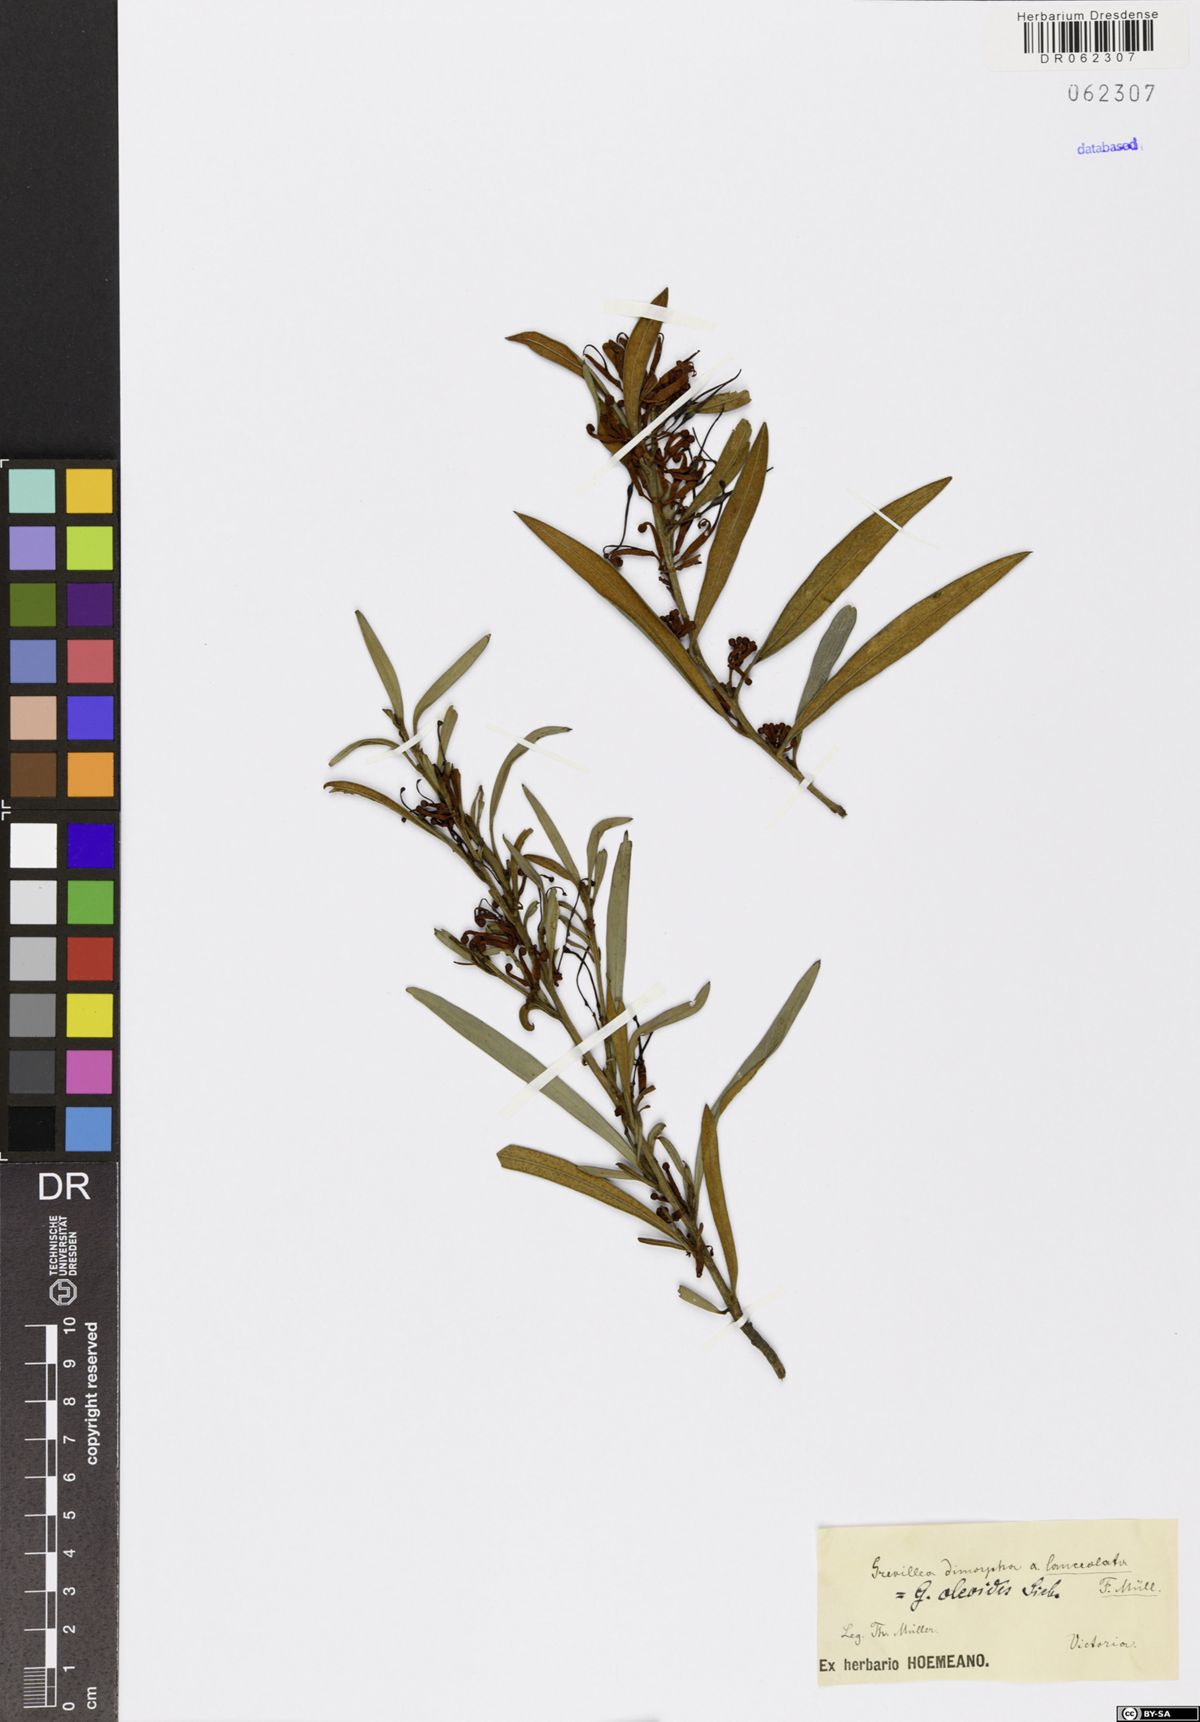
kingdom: Plantae
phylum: Tracheophyta
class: Magnoliopsida
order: Proteales
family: Proteaceae
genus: Grevillea
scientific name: Grevillea oleoides
